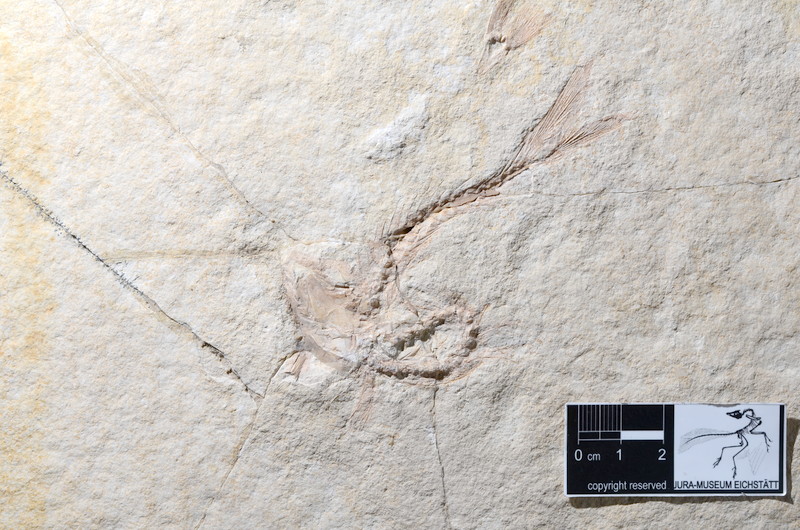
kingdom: Animalia
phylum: Chordata
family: Ascalaboidae
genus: Tharsis
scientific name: Tharsis dubius
